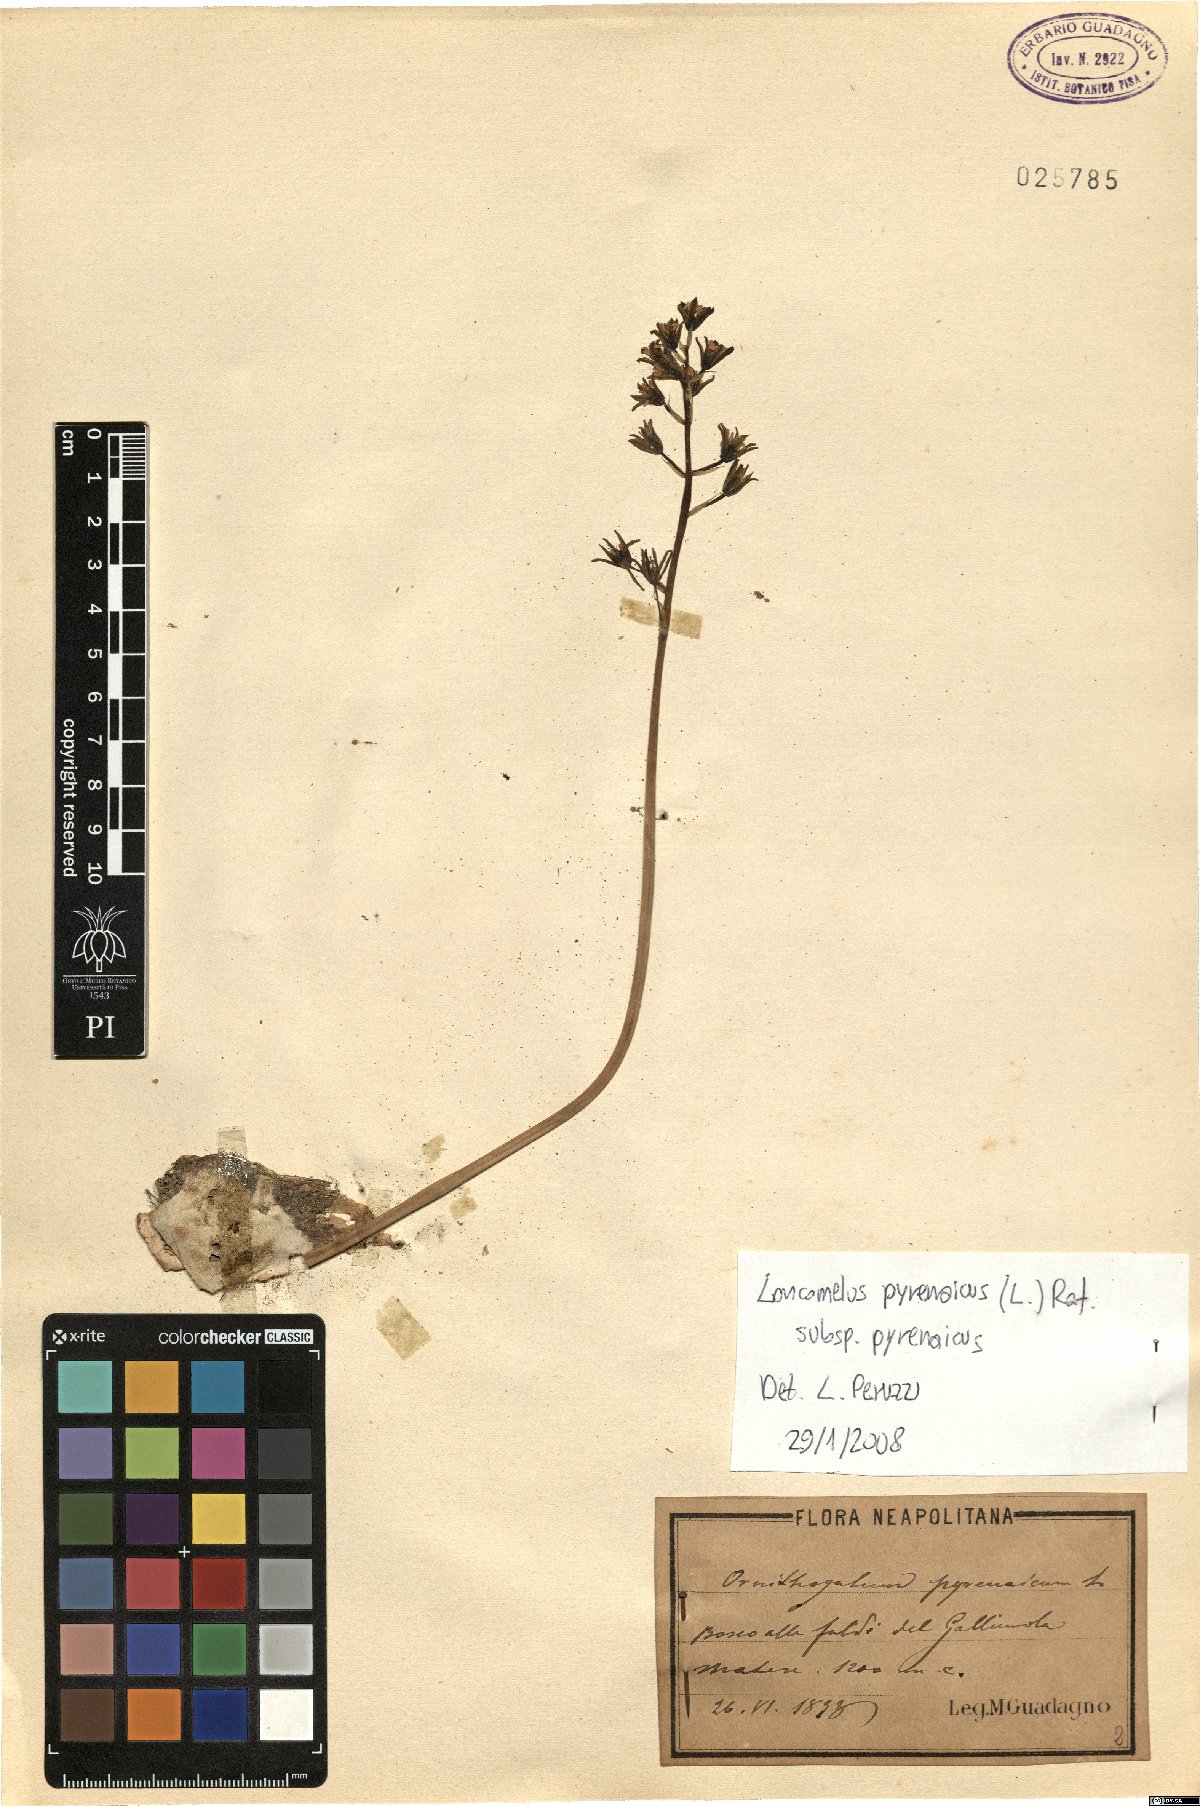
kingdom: Plantae
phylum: Tracheophyta
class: Liliopsida
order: Asparagales
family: Asparagaceae
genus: Ornithogalum
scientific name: Ornithogalum pyrenaicum
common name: Spiked star-of-bethlehem
